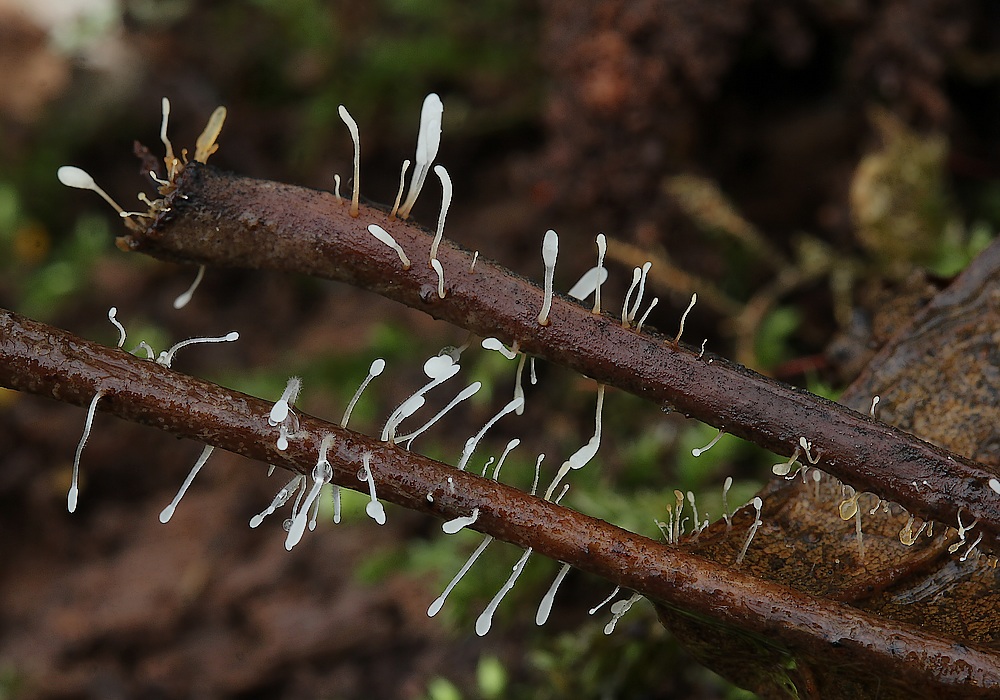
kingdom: Fungi
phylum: Basidiomycota
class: Agaricomycetes
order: Agaricales
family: Typhulaceae
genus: Typhula
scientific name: Typhula setipes
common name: liden trådkølle
